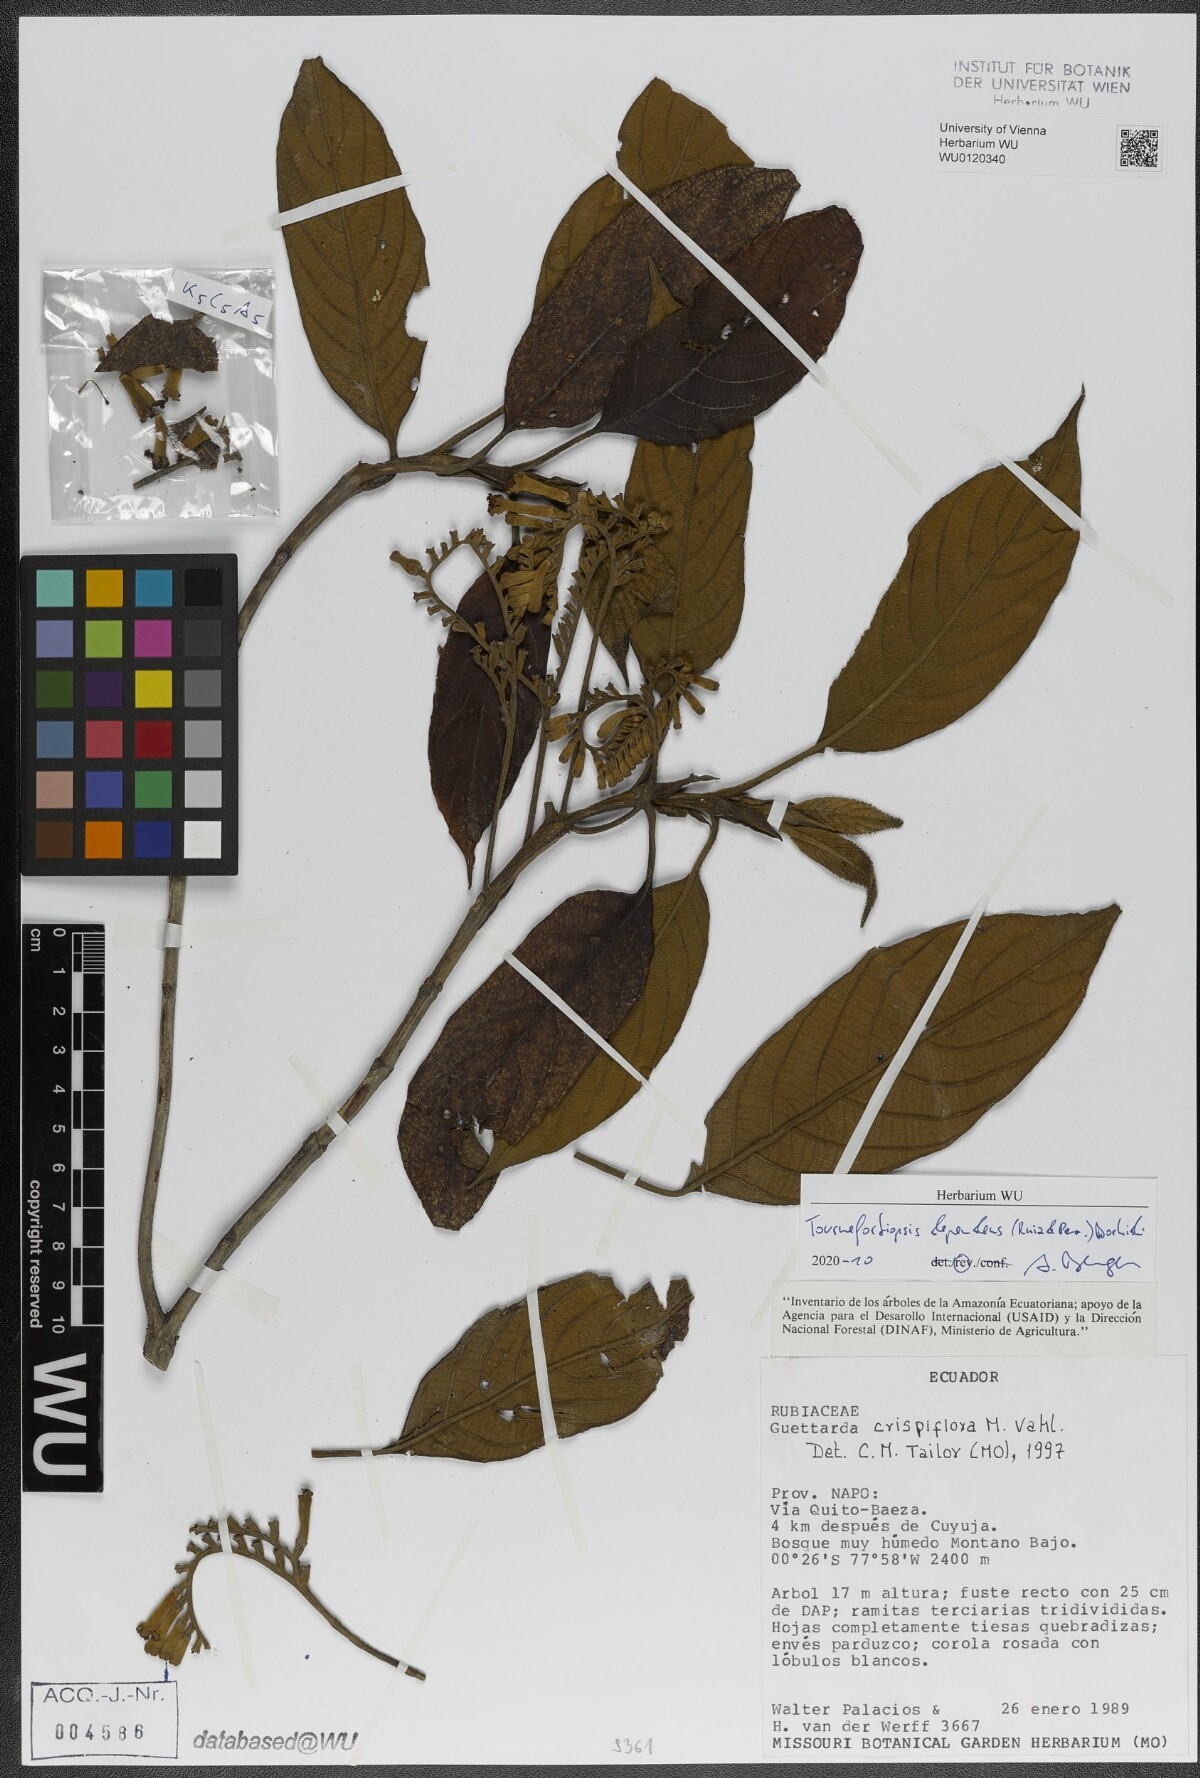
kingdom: Plantae
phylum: Tracheophyta
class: Magnoliopsida
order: Gentianales
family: Rubiaceae
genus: Tournefortiopsis
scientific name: Tournefortiopsis dependens
